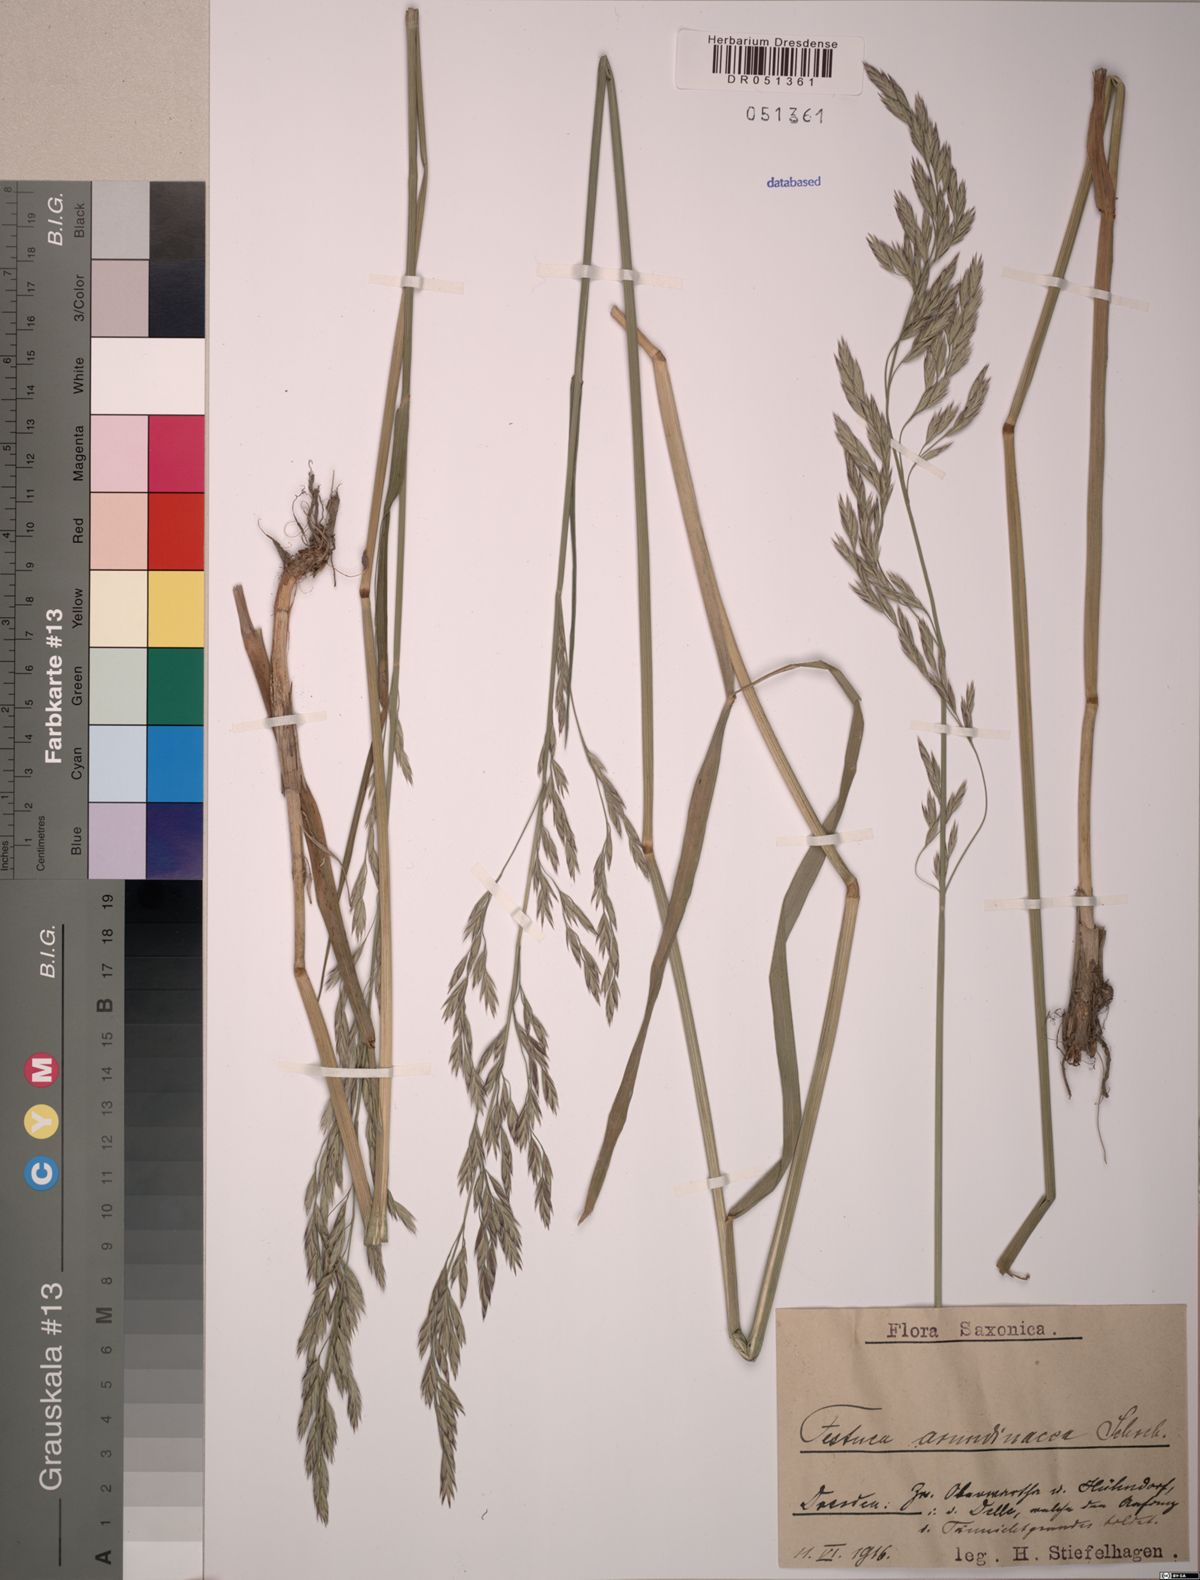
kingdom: Plantae
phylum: Tracheophyta
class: Liliopsida
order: Poales
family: Poaceae
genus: Lolium
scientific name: Lolium arundinaceum
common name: Reed fescue
